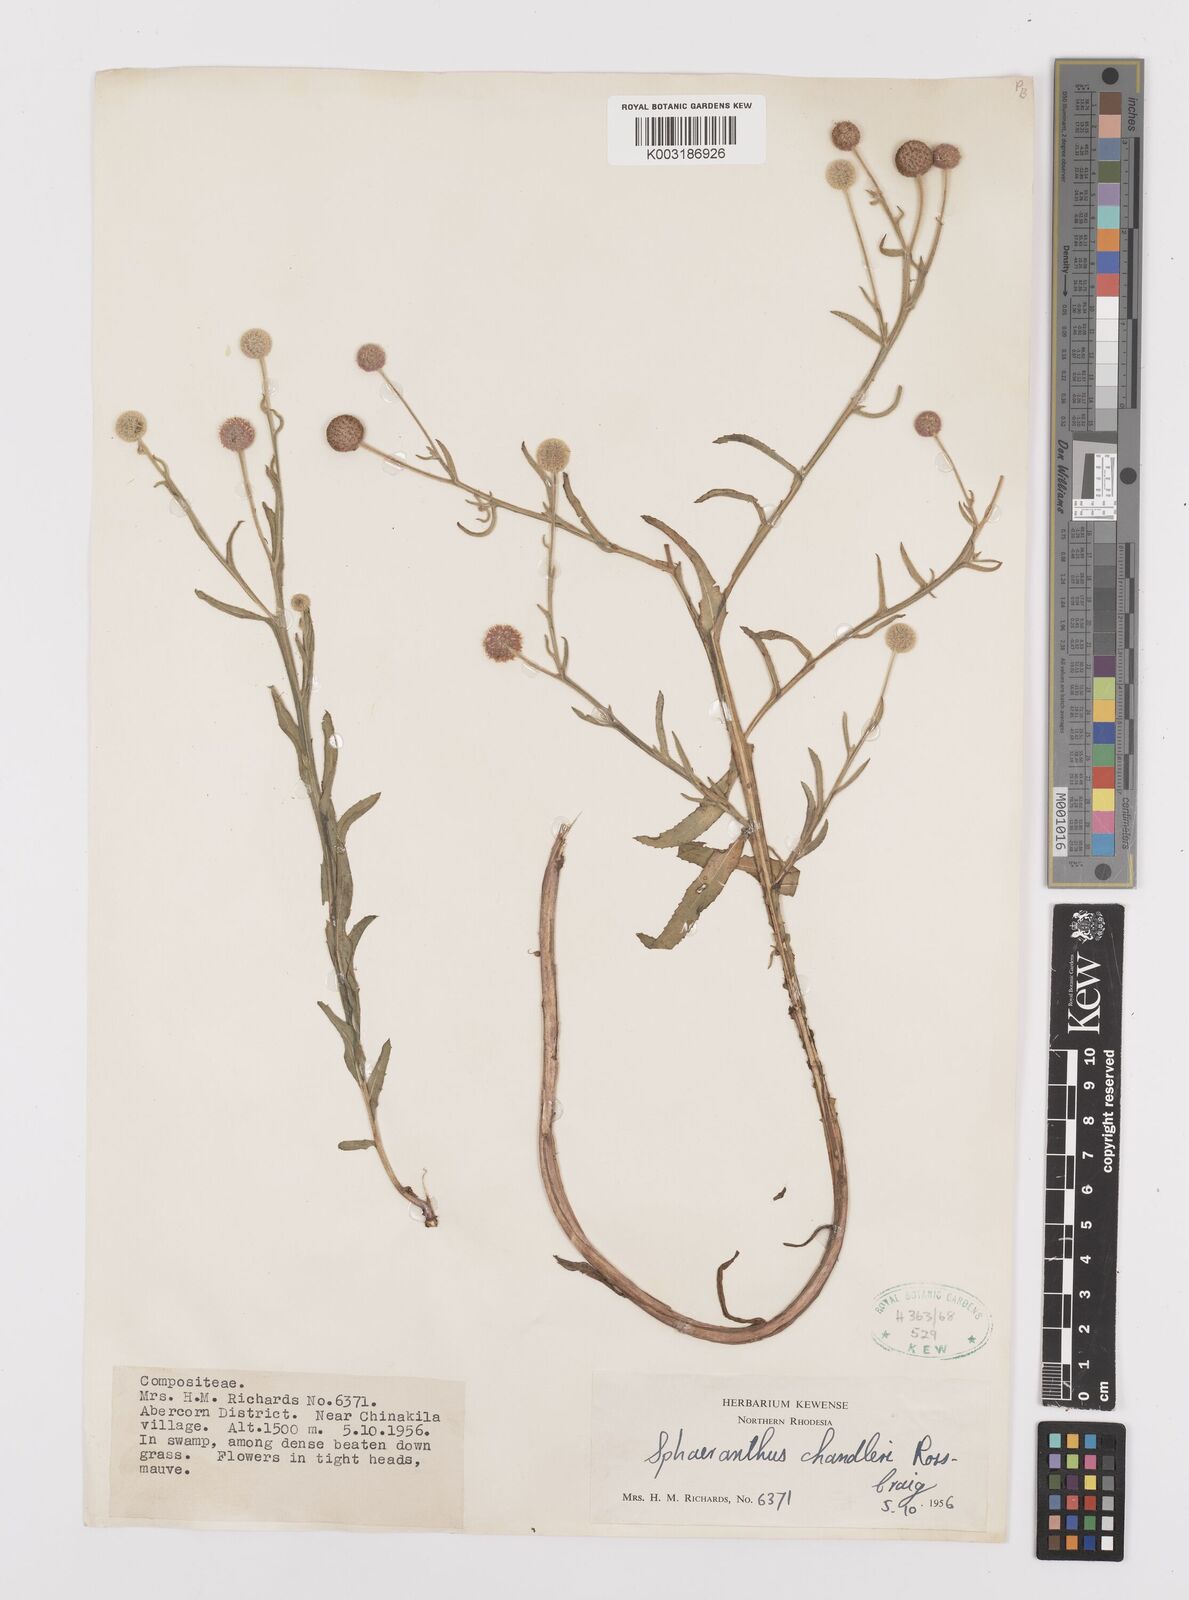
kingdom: Plantae
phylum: Tracheophyta
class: Magnoliopsida
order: Asterales
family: Asteraceae
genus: Sphaeranthus
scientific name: Sphaeranthus chandleri
